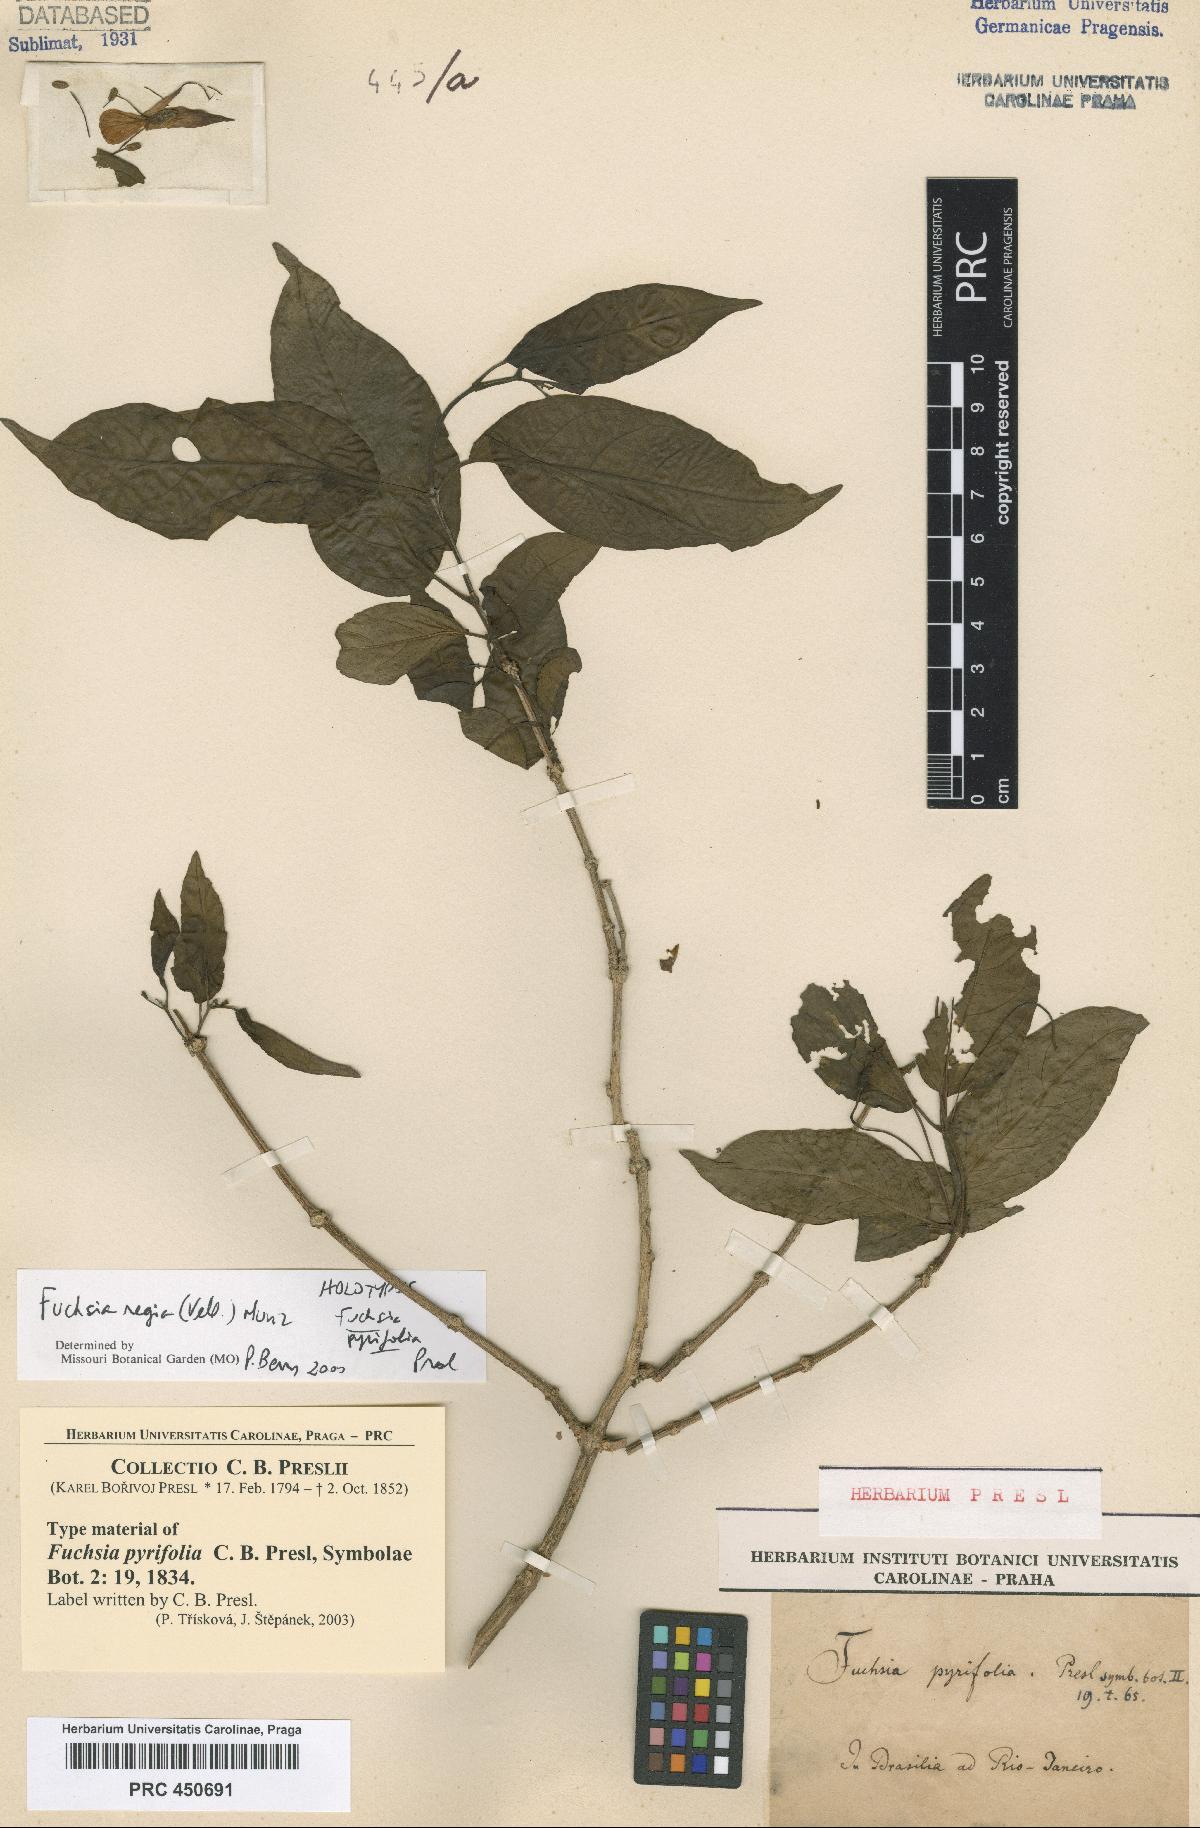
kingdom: Plantae
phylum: Tracheophyta
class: Magnoliopsida
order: Myrtales
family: Onagraceae
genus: Fuchsia
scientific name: Fuchsia regia
